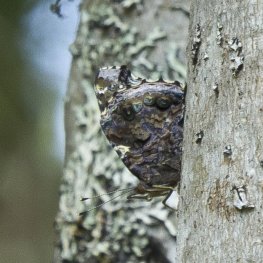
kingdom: Animalia
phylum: Arthropoda
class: Insecta
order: Lepidoptera
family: Nymphalidae
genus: Vanessa
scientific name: Vanessa atalanta
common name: Red Admiral
